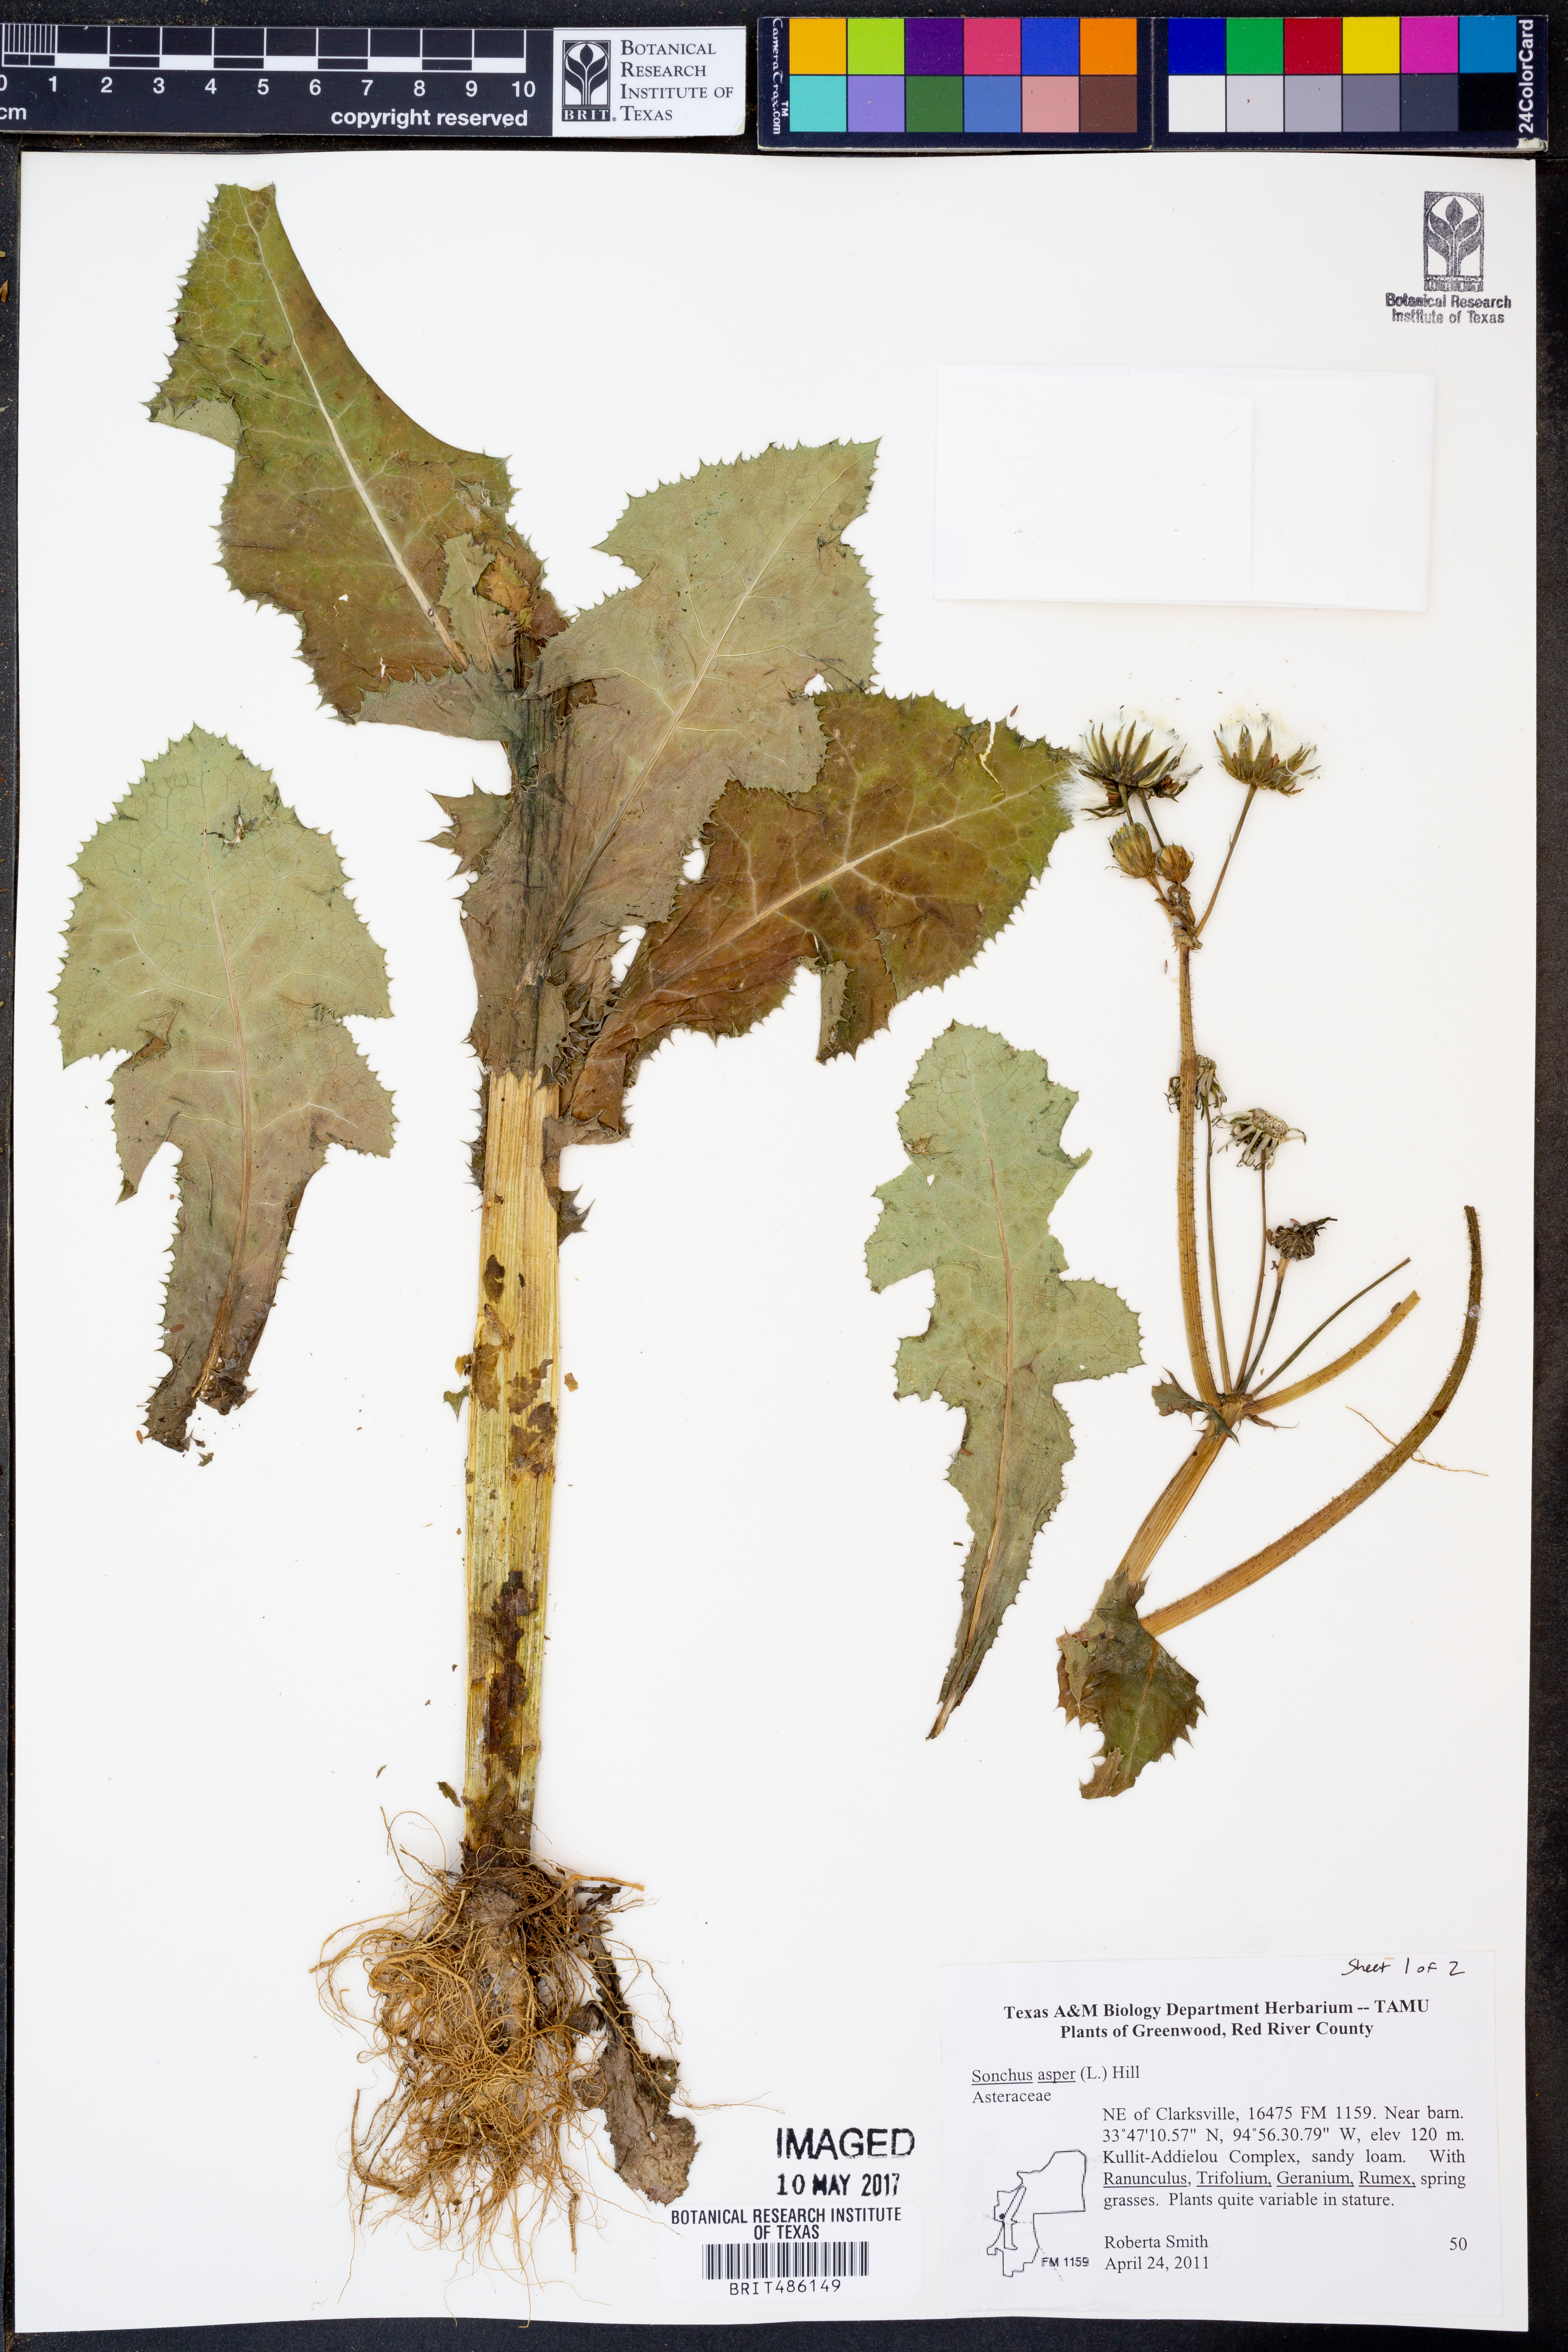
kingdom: Plantae
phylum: Tracheophyta
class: Magnoliopsida
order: Asterales
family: Asteraceae
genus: Sonchus
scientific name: Sonchus asper
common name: Prickly sow-thistle
